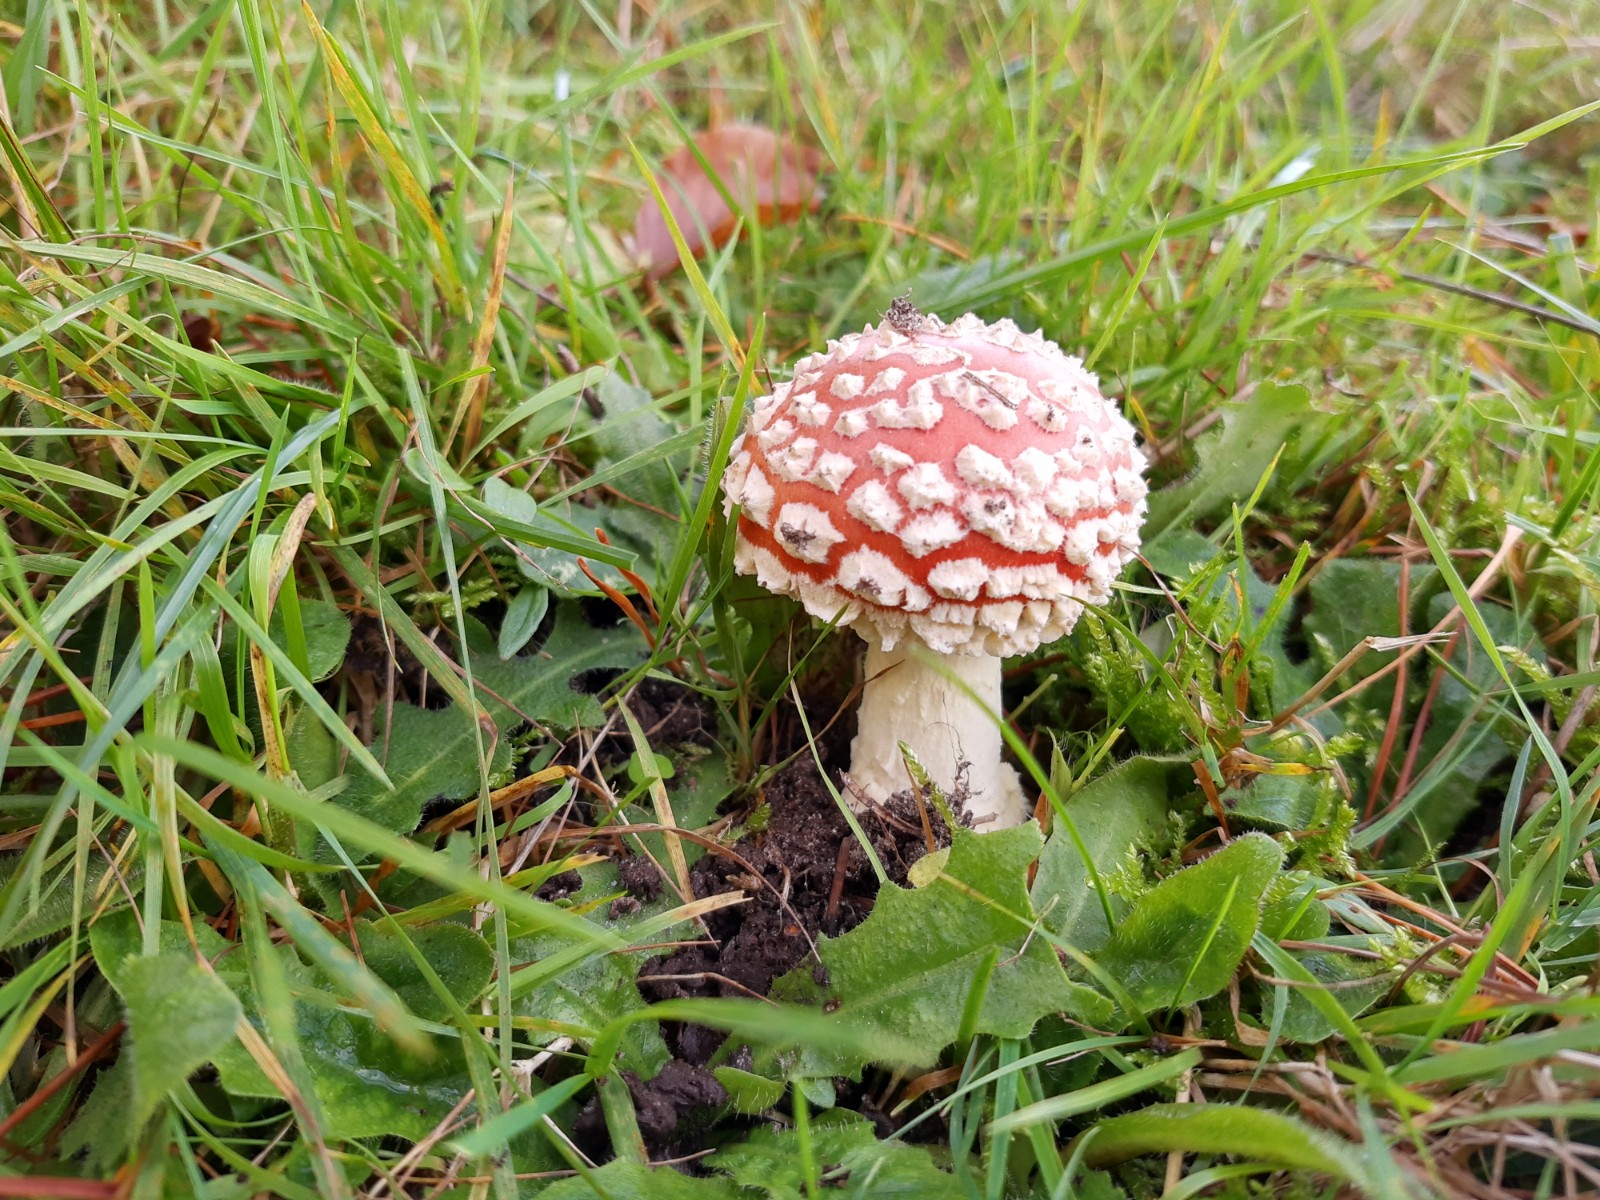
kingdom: Fungi
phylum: Basidiomycota
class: Agaricomycetes
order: Agaricales
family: Amanitaceae
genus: Amanita
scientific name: Amanita muscaria
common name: rød fluesvamp
